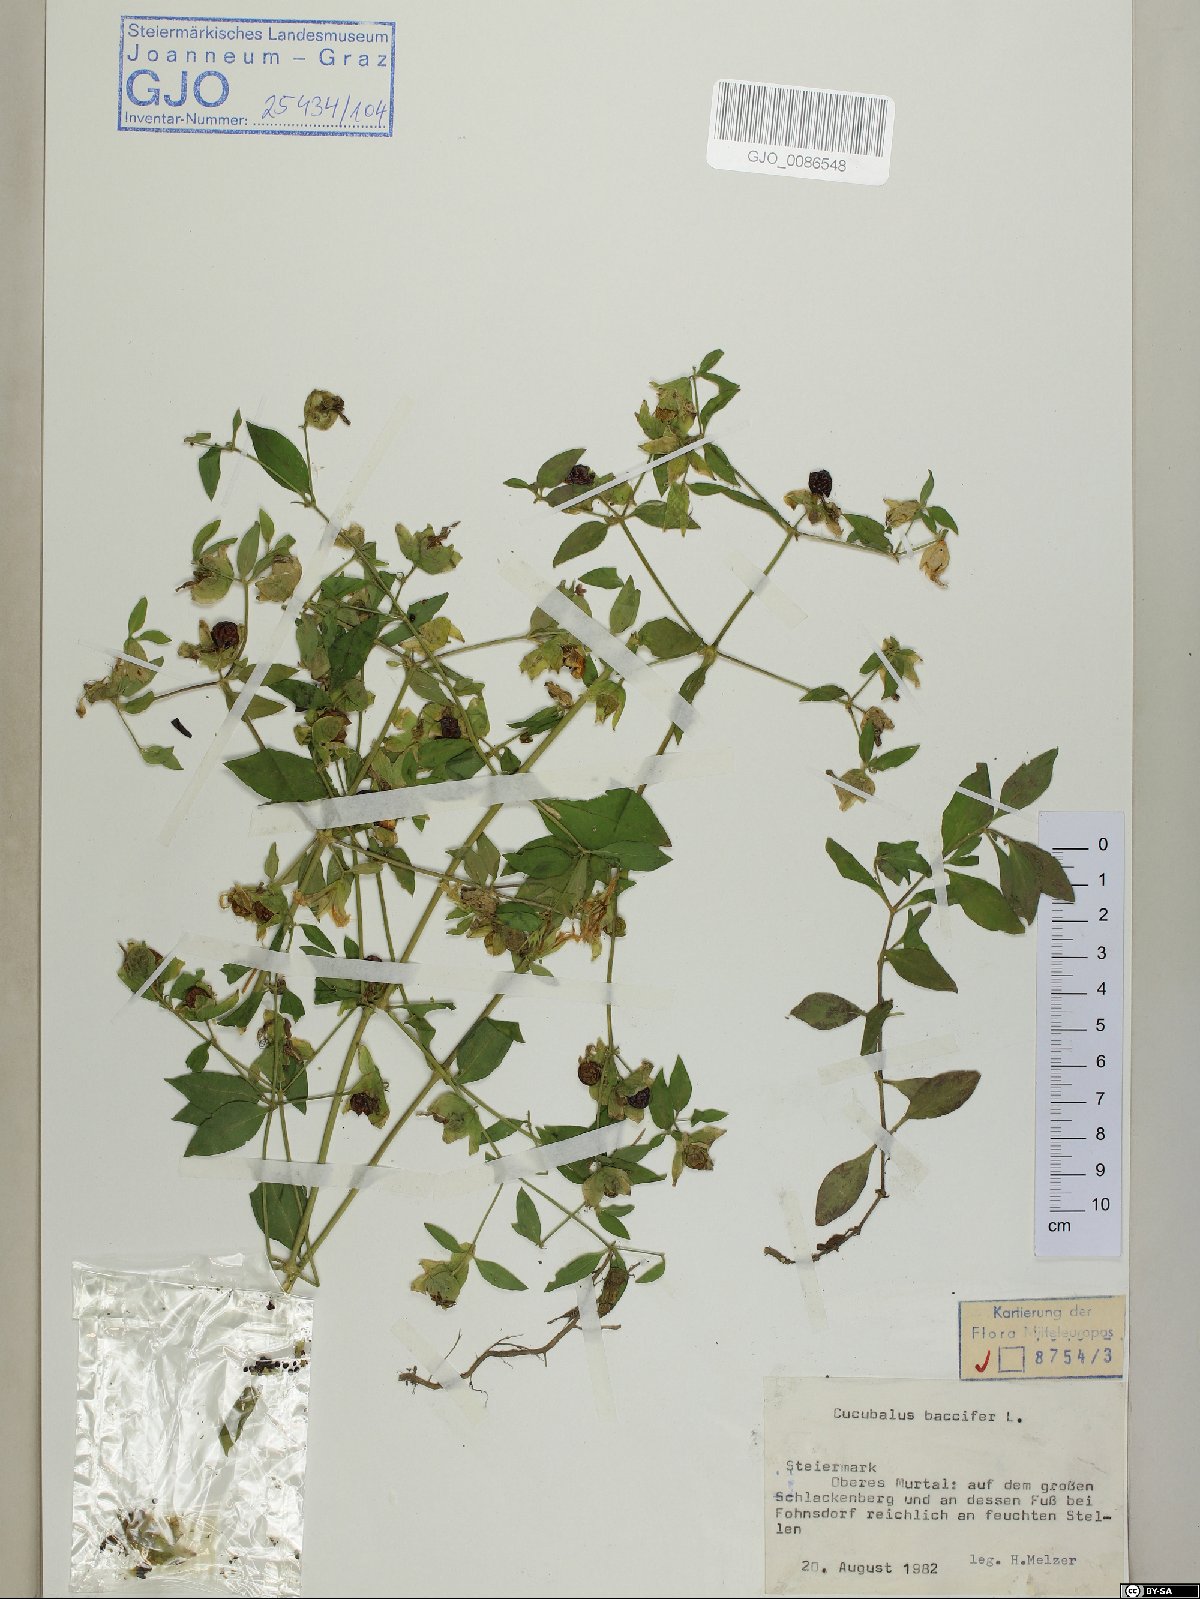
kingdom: Plantae
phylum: Tracheophyta
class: Magnoliopsida
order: Caryophyllales
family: Caryophyllaceae
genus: Silene
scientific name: Silene baccifera
